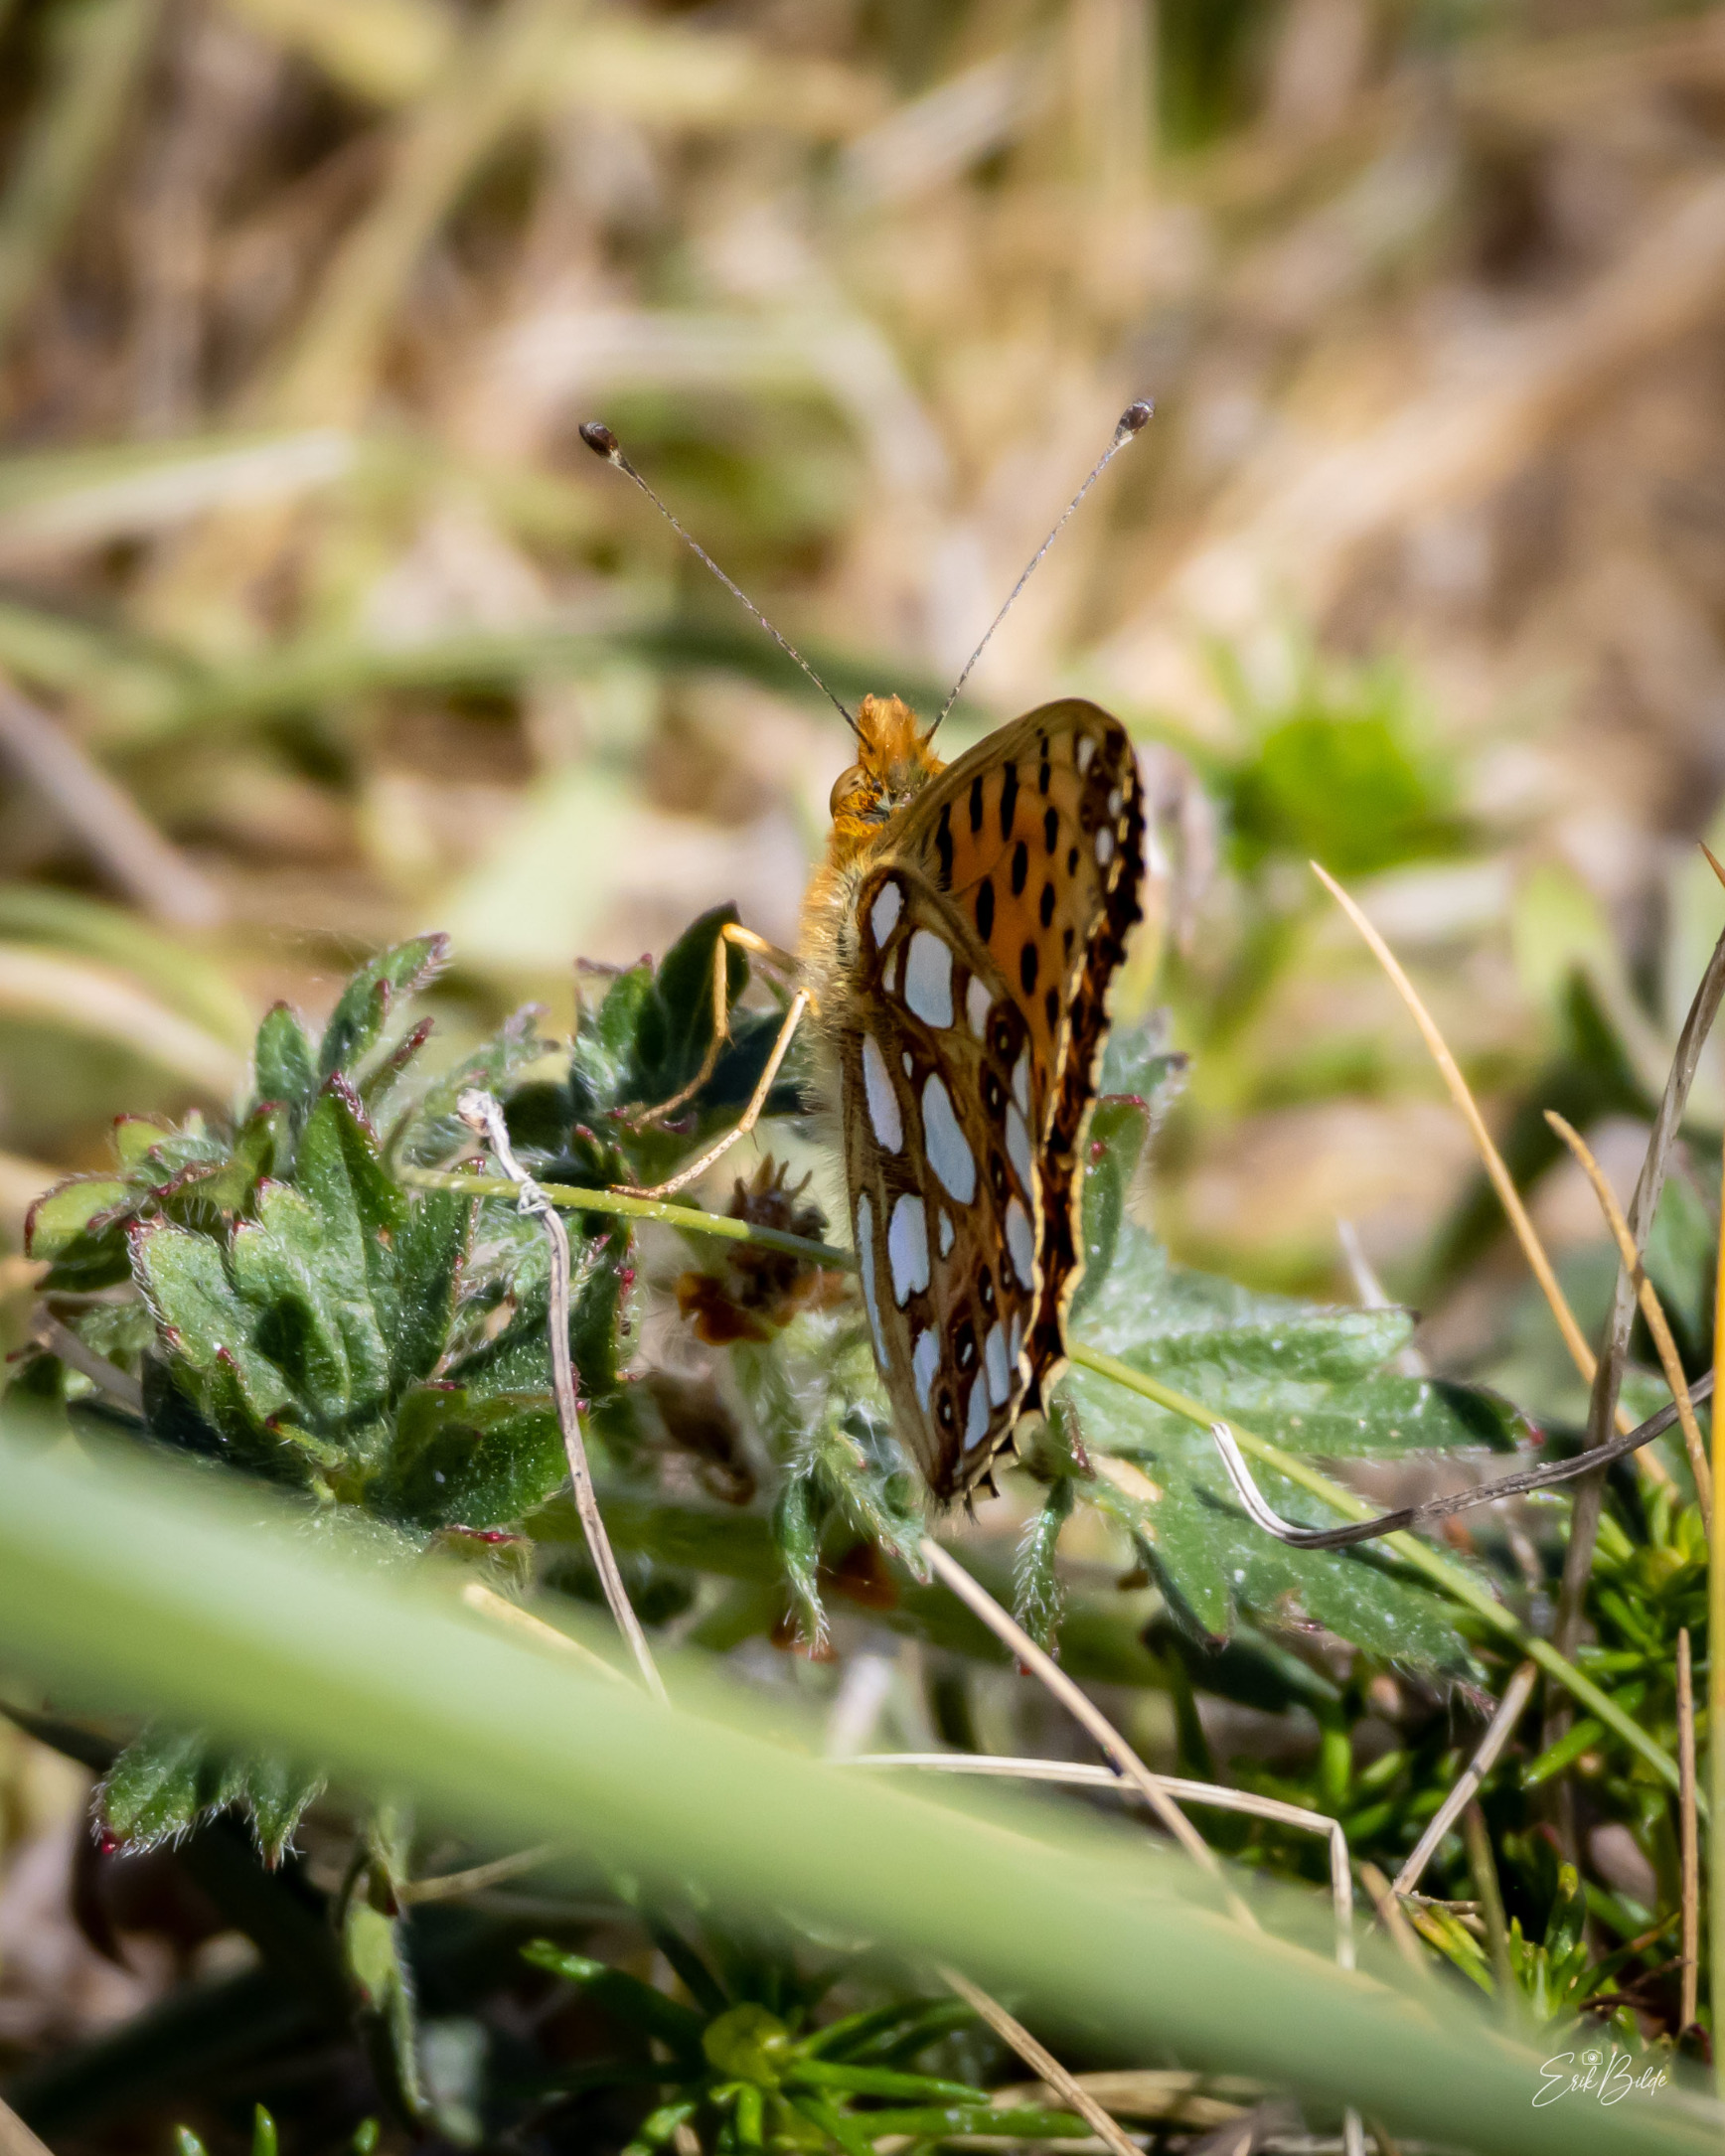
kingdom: Animalia
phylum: Arthropoda
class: Insecta
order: Lepidoptera
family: Nymphalidae
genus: Issoria
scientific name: Issoria lathonia
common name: Storplettet perlemorsommerfugl
